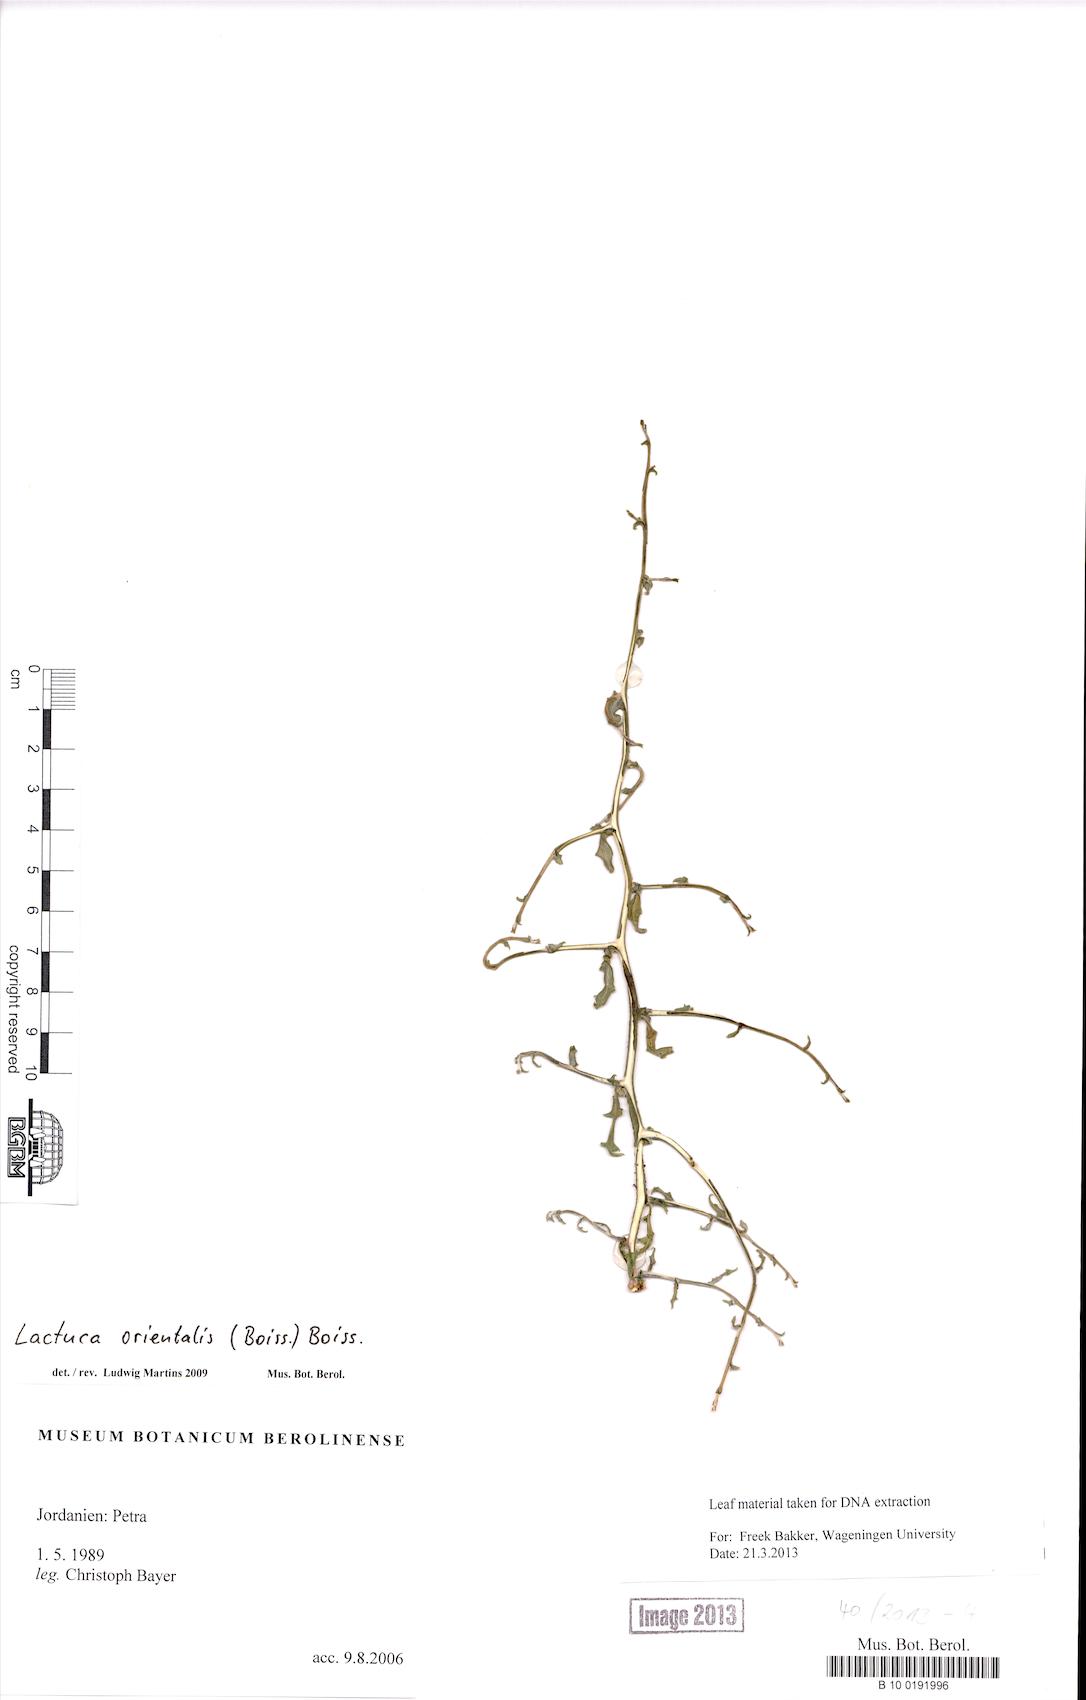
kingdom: Plantae
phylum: Tracheophyta
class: Magnoliopsida
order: Asterales
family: Asteraceae
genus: Lactuca
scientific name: Lactuca orientalis
